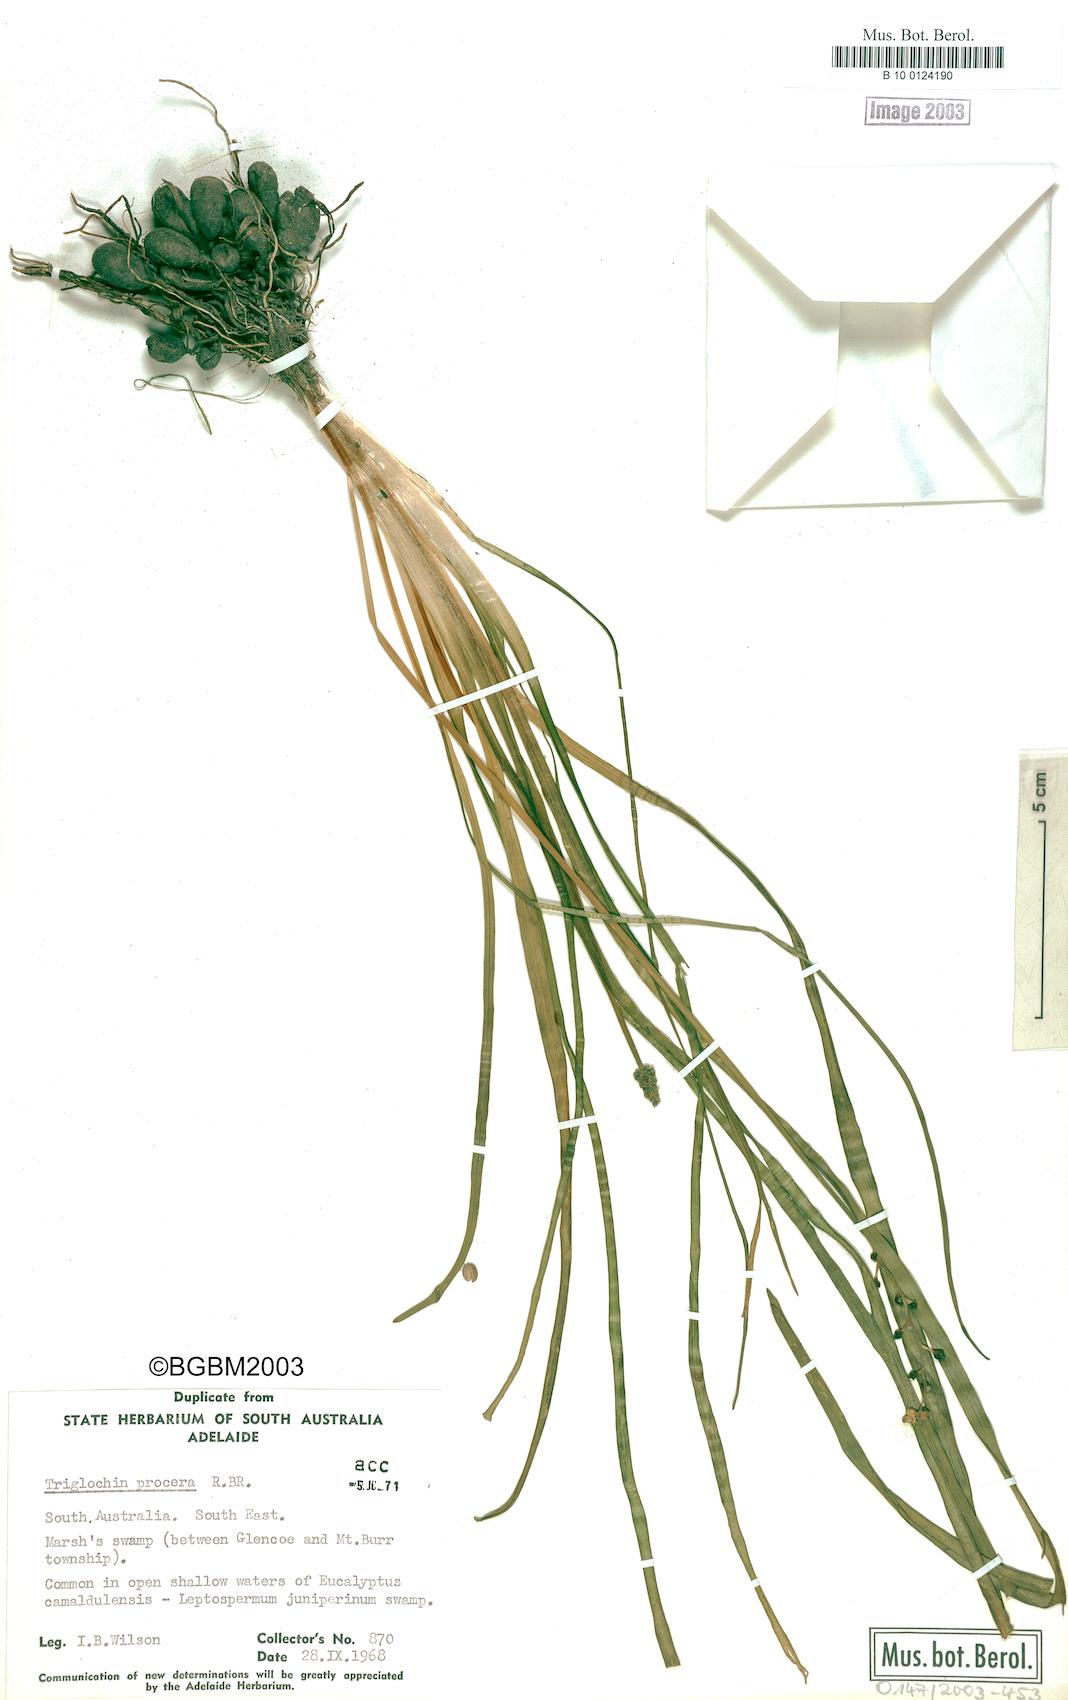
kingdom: Plantae
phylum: Tracheophyta
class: Liliopsida
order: Alismatales
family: Juncaginaceae
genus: Cycnogeton
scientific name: Cycnogeton procerum
